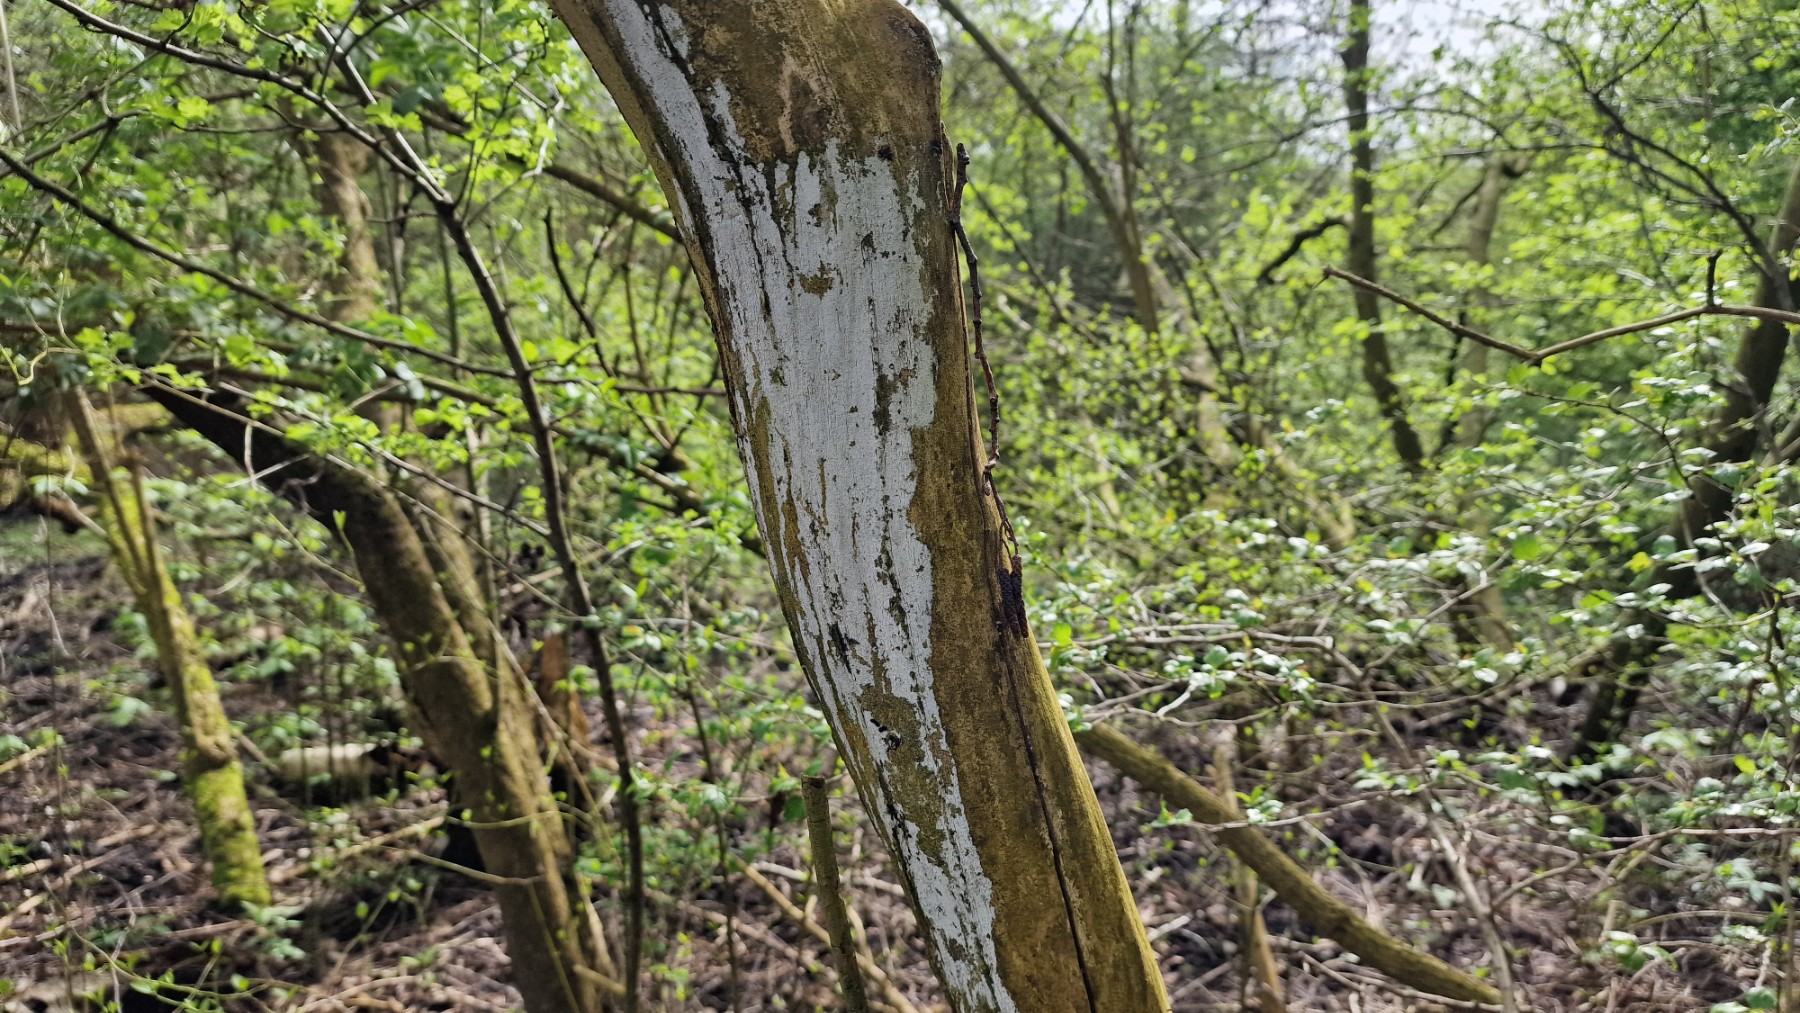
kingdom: Fungi
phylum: Basidiomycota
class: Agaricomycetes
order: Corticiales
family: Corticiaceae
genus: Lyomyces
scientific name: Lyomyces sambuci
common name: almindelig hyldehinde
